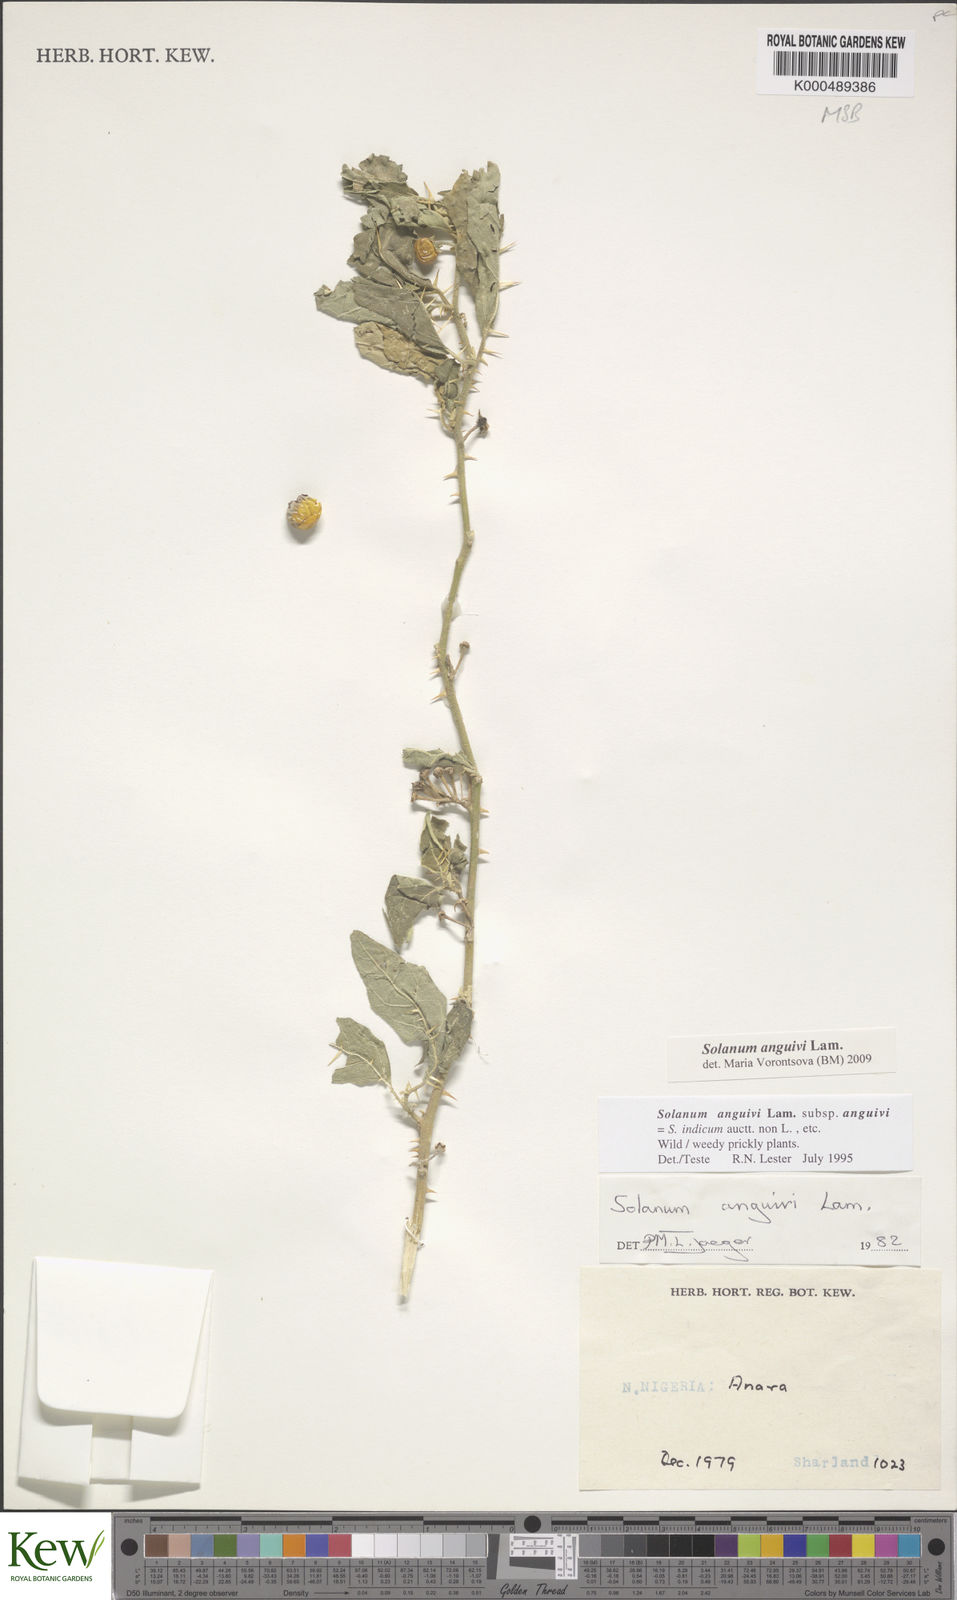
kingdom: Plantae
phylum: Tracheophyta
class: Magnoliopsida
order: Solanales
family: Solanaceae
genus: Solanum
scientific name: Solanum anguivi
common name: Forest bitterberry
